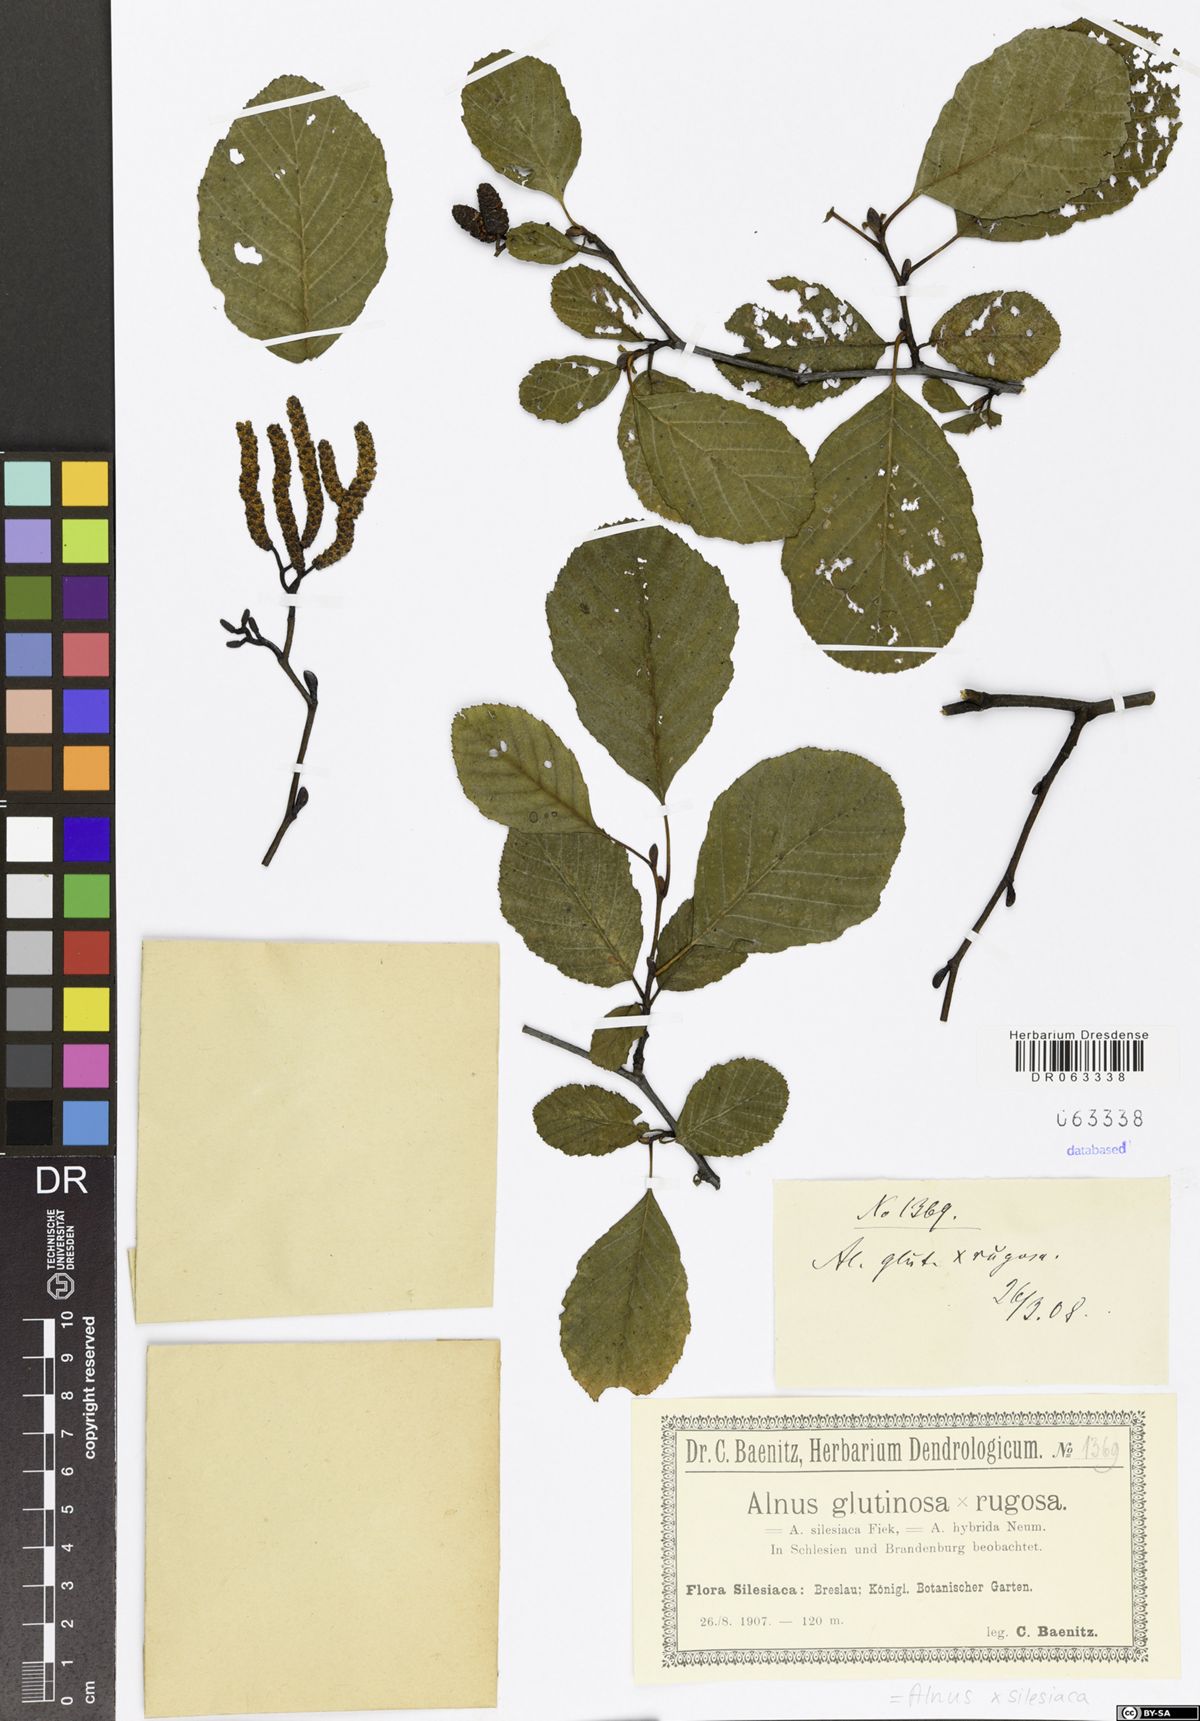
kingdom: Plantae
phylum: Tracheophyta
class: Magnoliopsida
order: Fagales
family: Betulaceae
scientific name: Betulaceae
